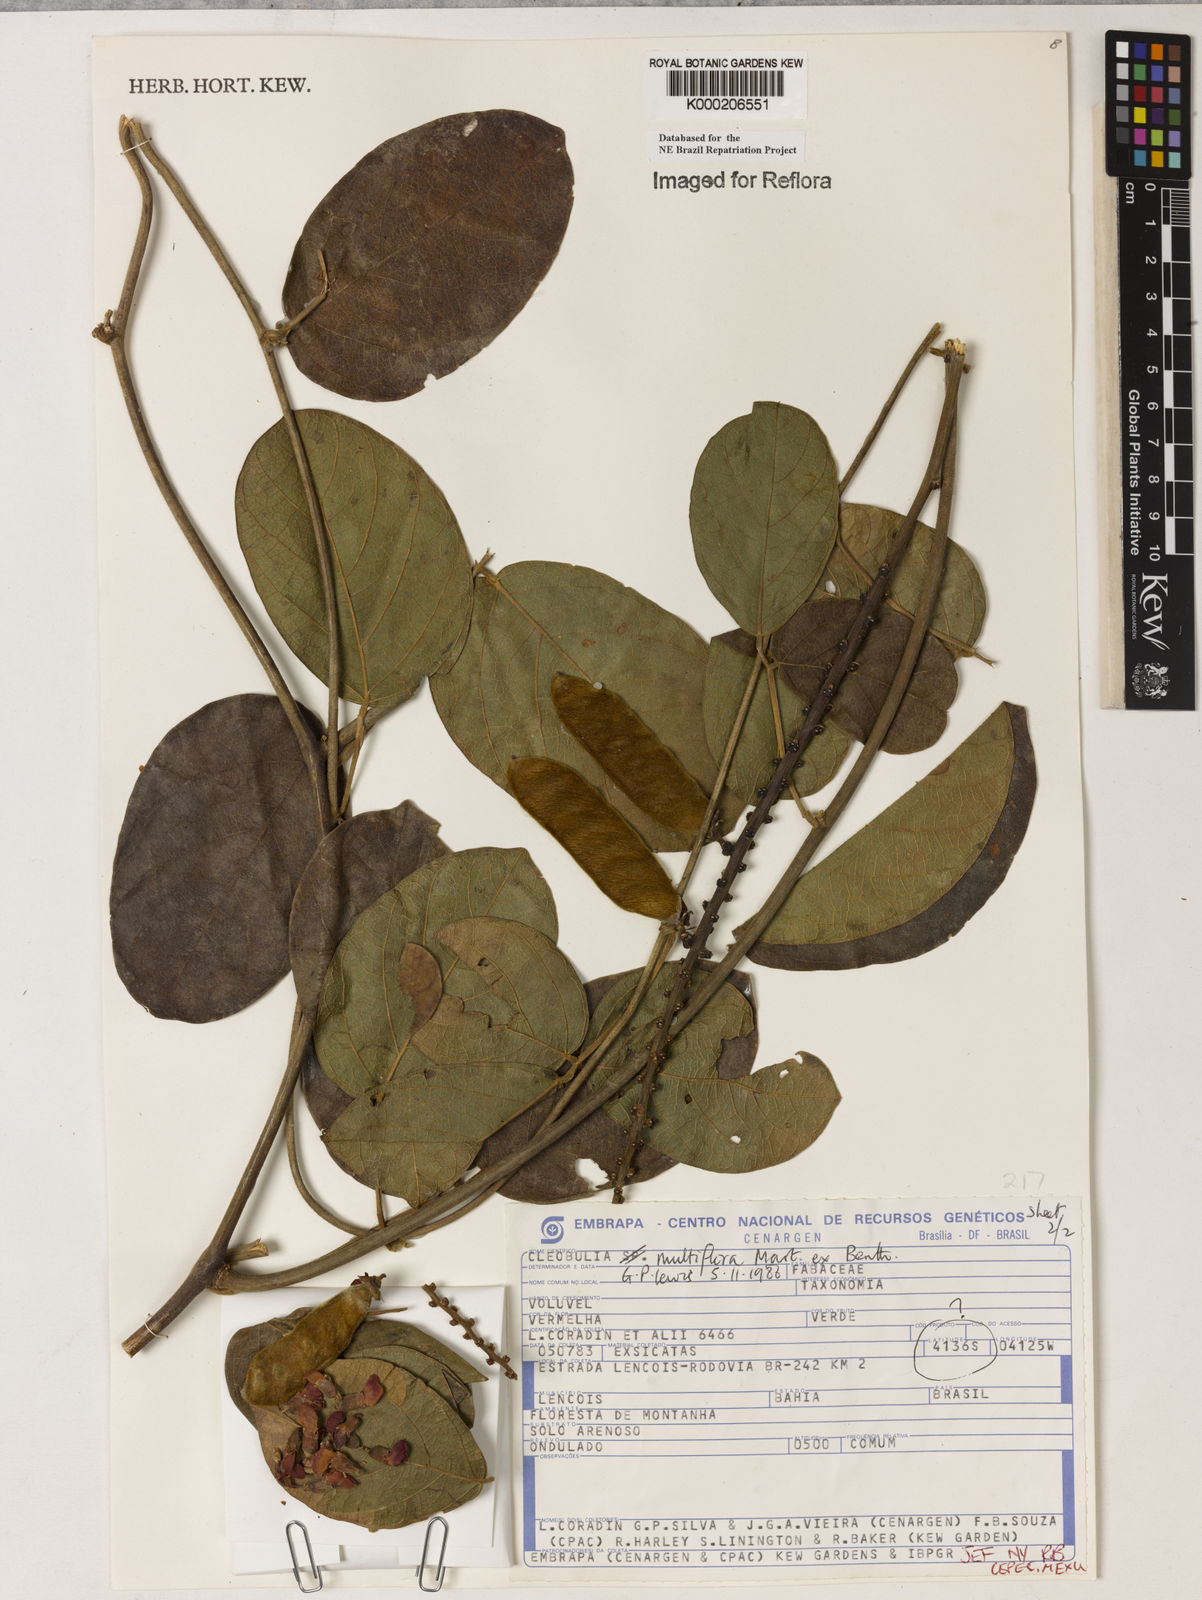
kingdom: Plantae
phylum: Tracheophyta
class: Magnoliopsida
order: Fabales
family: Fabaceae
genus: Cleobulia
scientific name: Cleobulia coccinea
